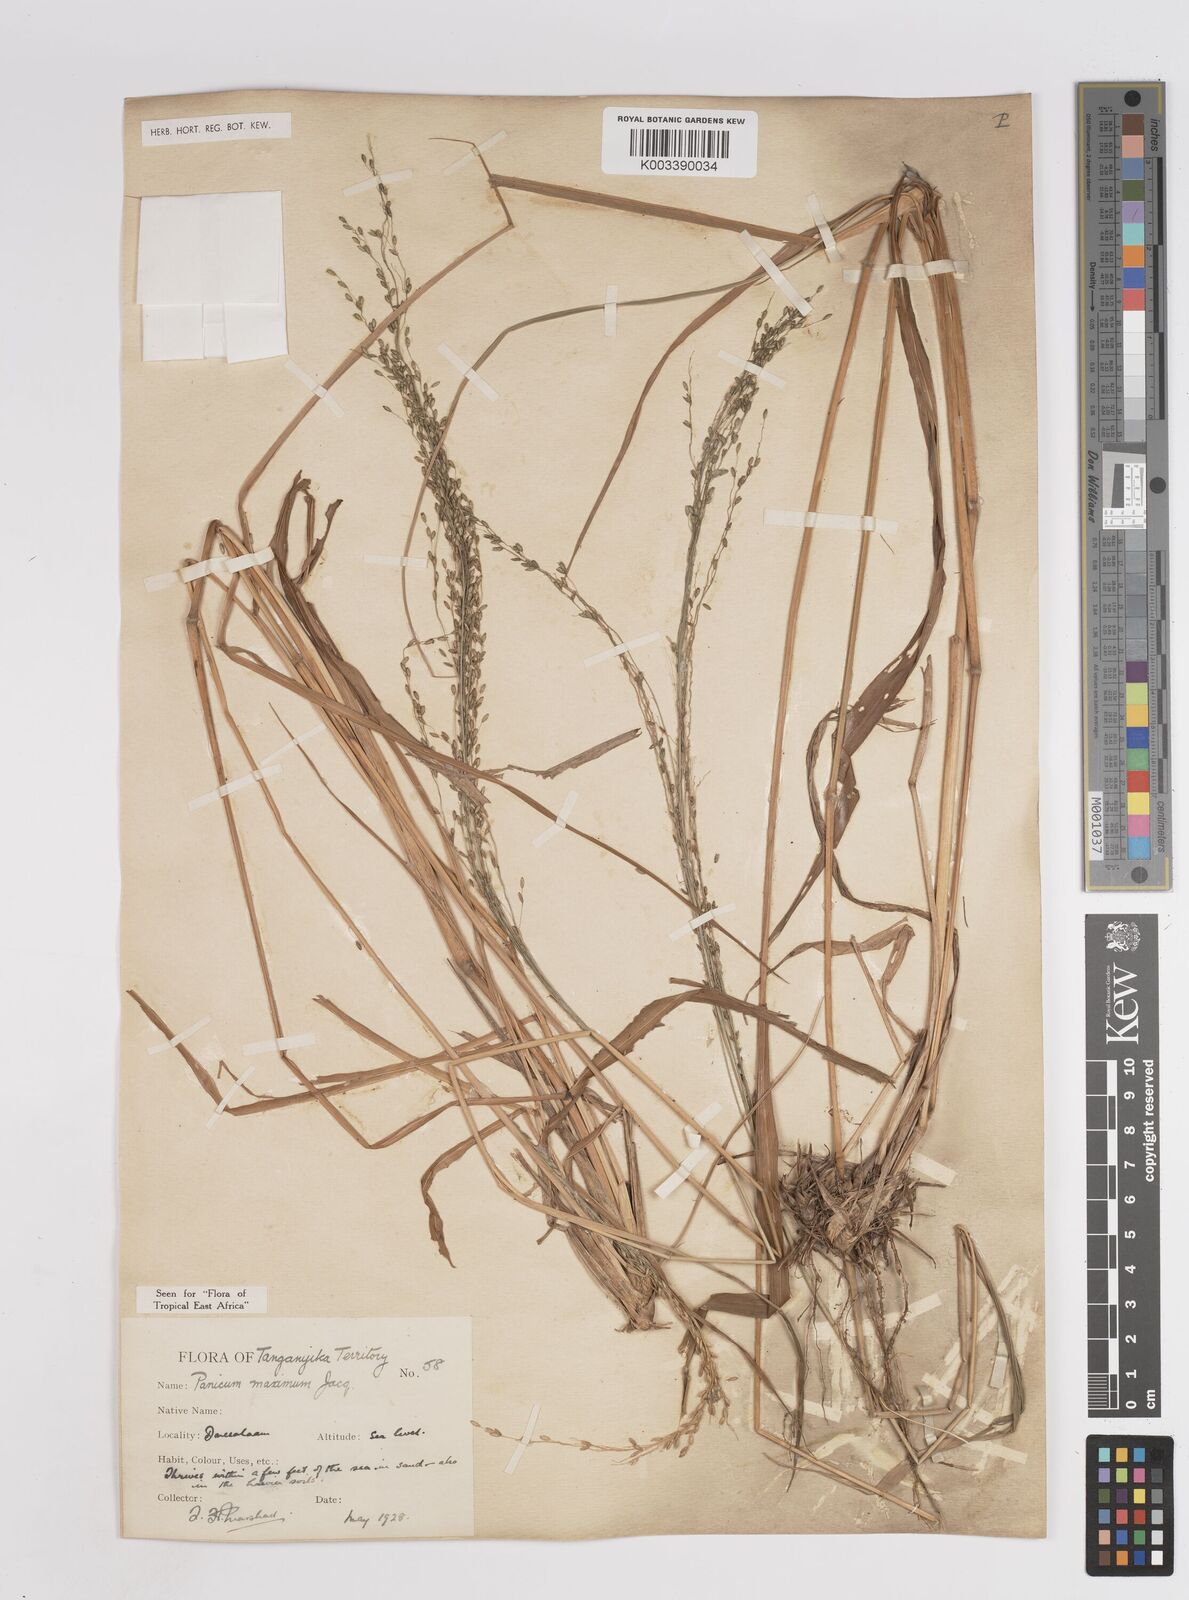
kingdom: Plantae
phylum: Tracheophyta
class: Liliopsida
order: Poales
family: Poaceae
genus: Megathyrsus
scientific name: Megathyrsus maximus
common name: Guineagrass
